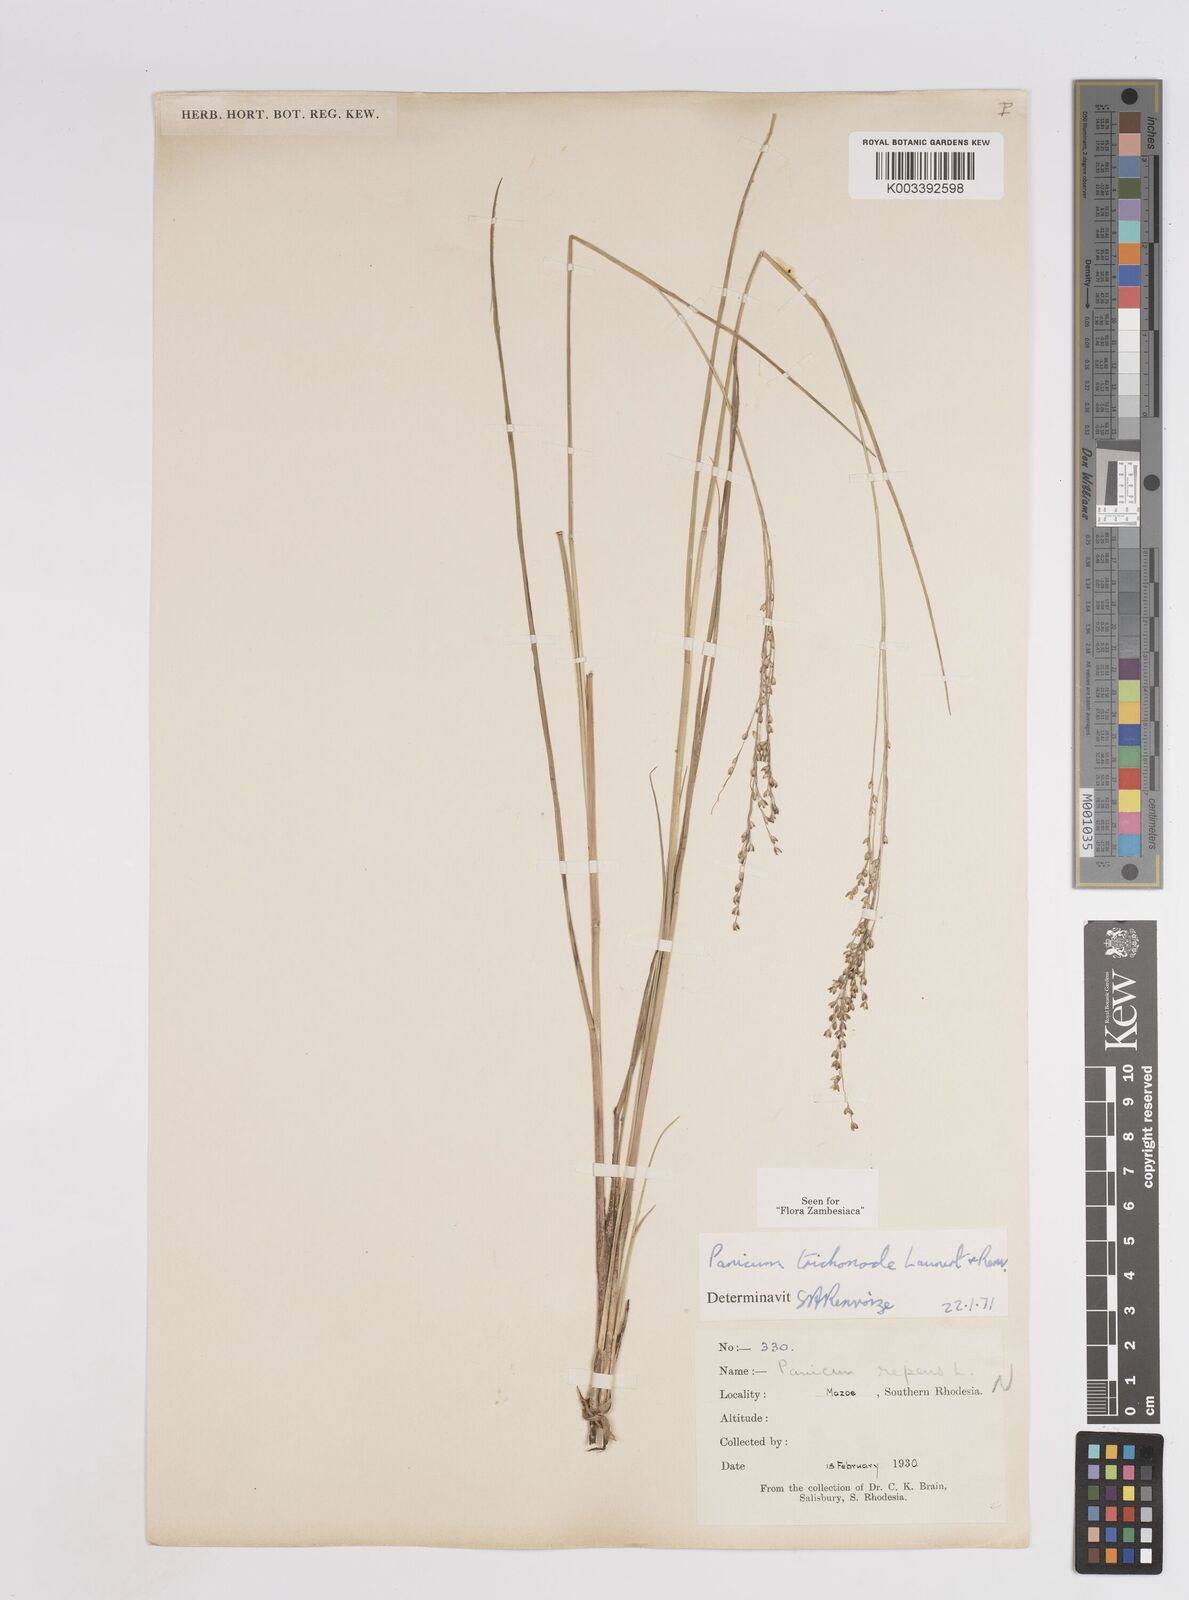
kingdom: Plantae
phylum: Tracheophyta
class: Liliopsida
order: Poales
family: Poaceae
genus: Panicum
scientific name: Panicum trichonode
